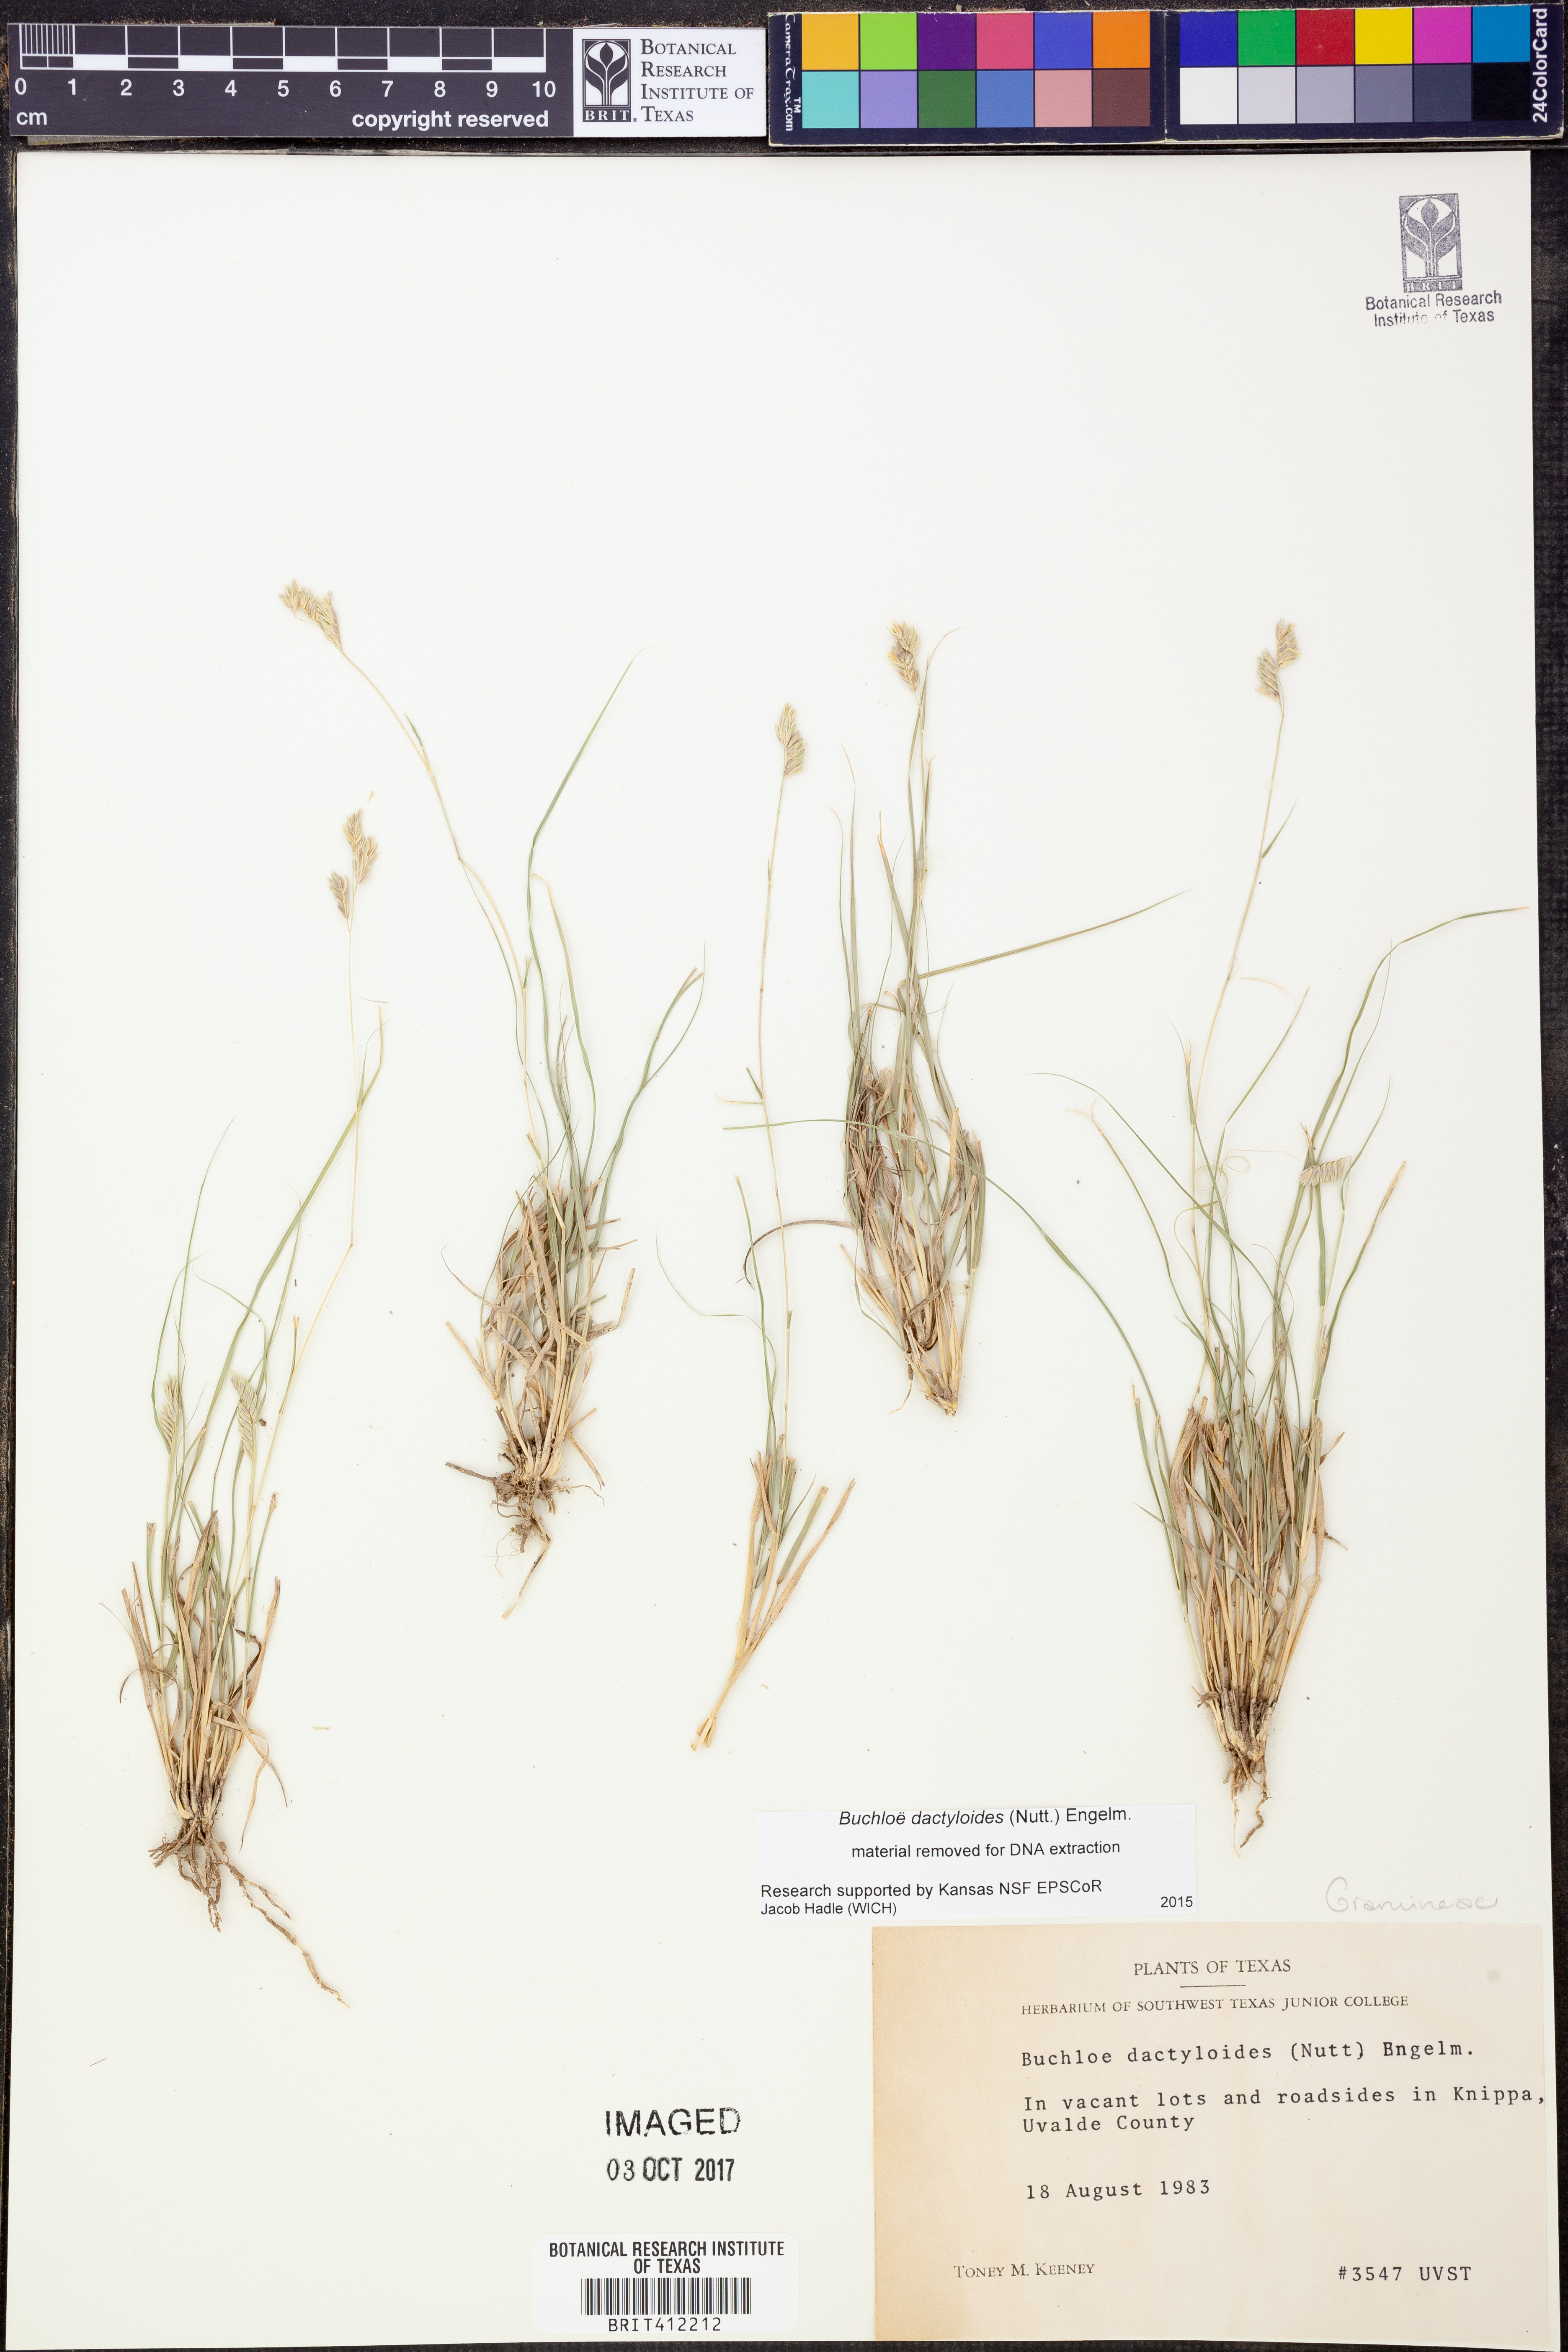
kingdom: Plantae
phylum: Tracheophyta
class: Liliopsida
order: Poales
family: Poaceae
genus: Bouteloua
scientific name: Bouteloua dactyloides
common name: Buffalo grass
